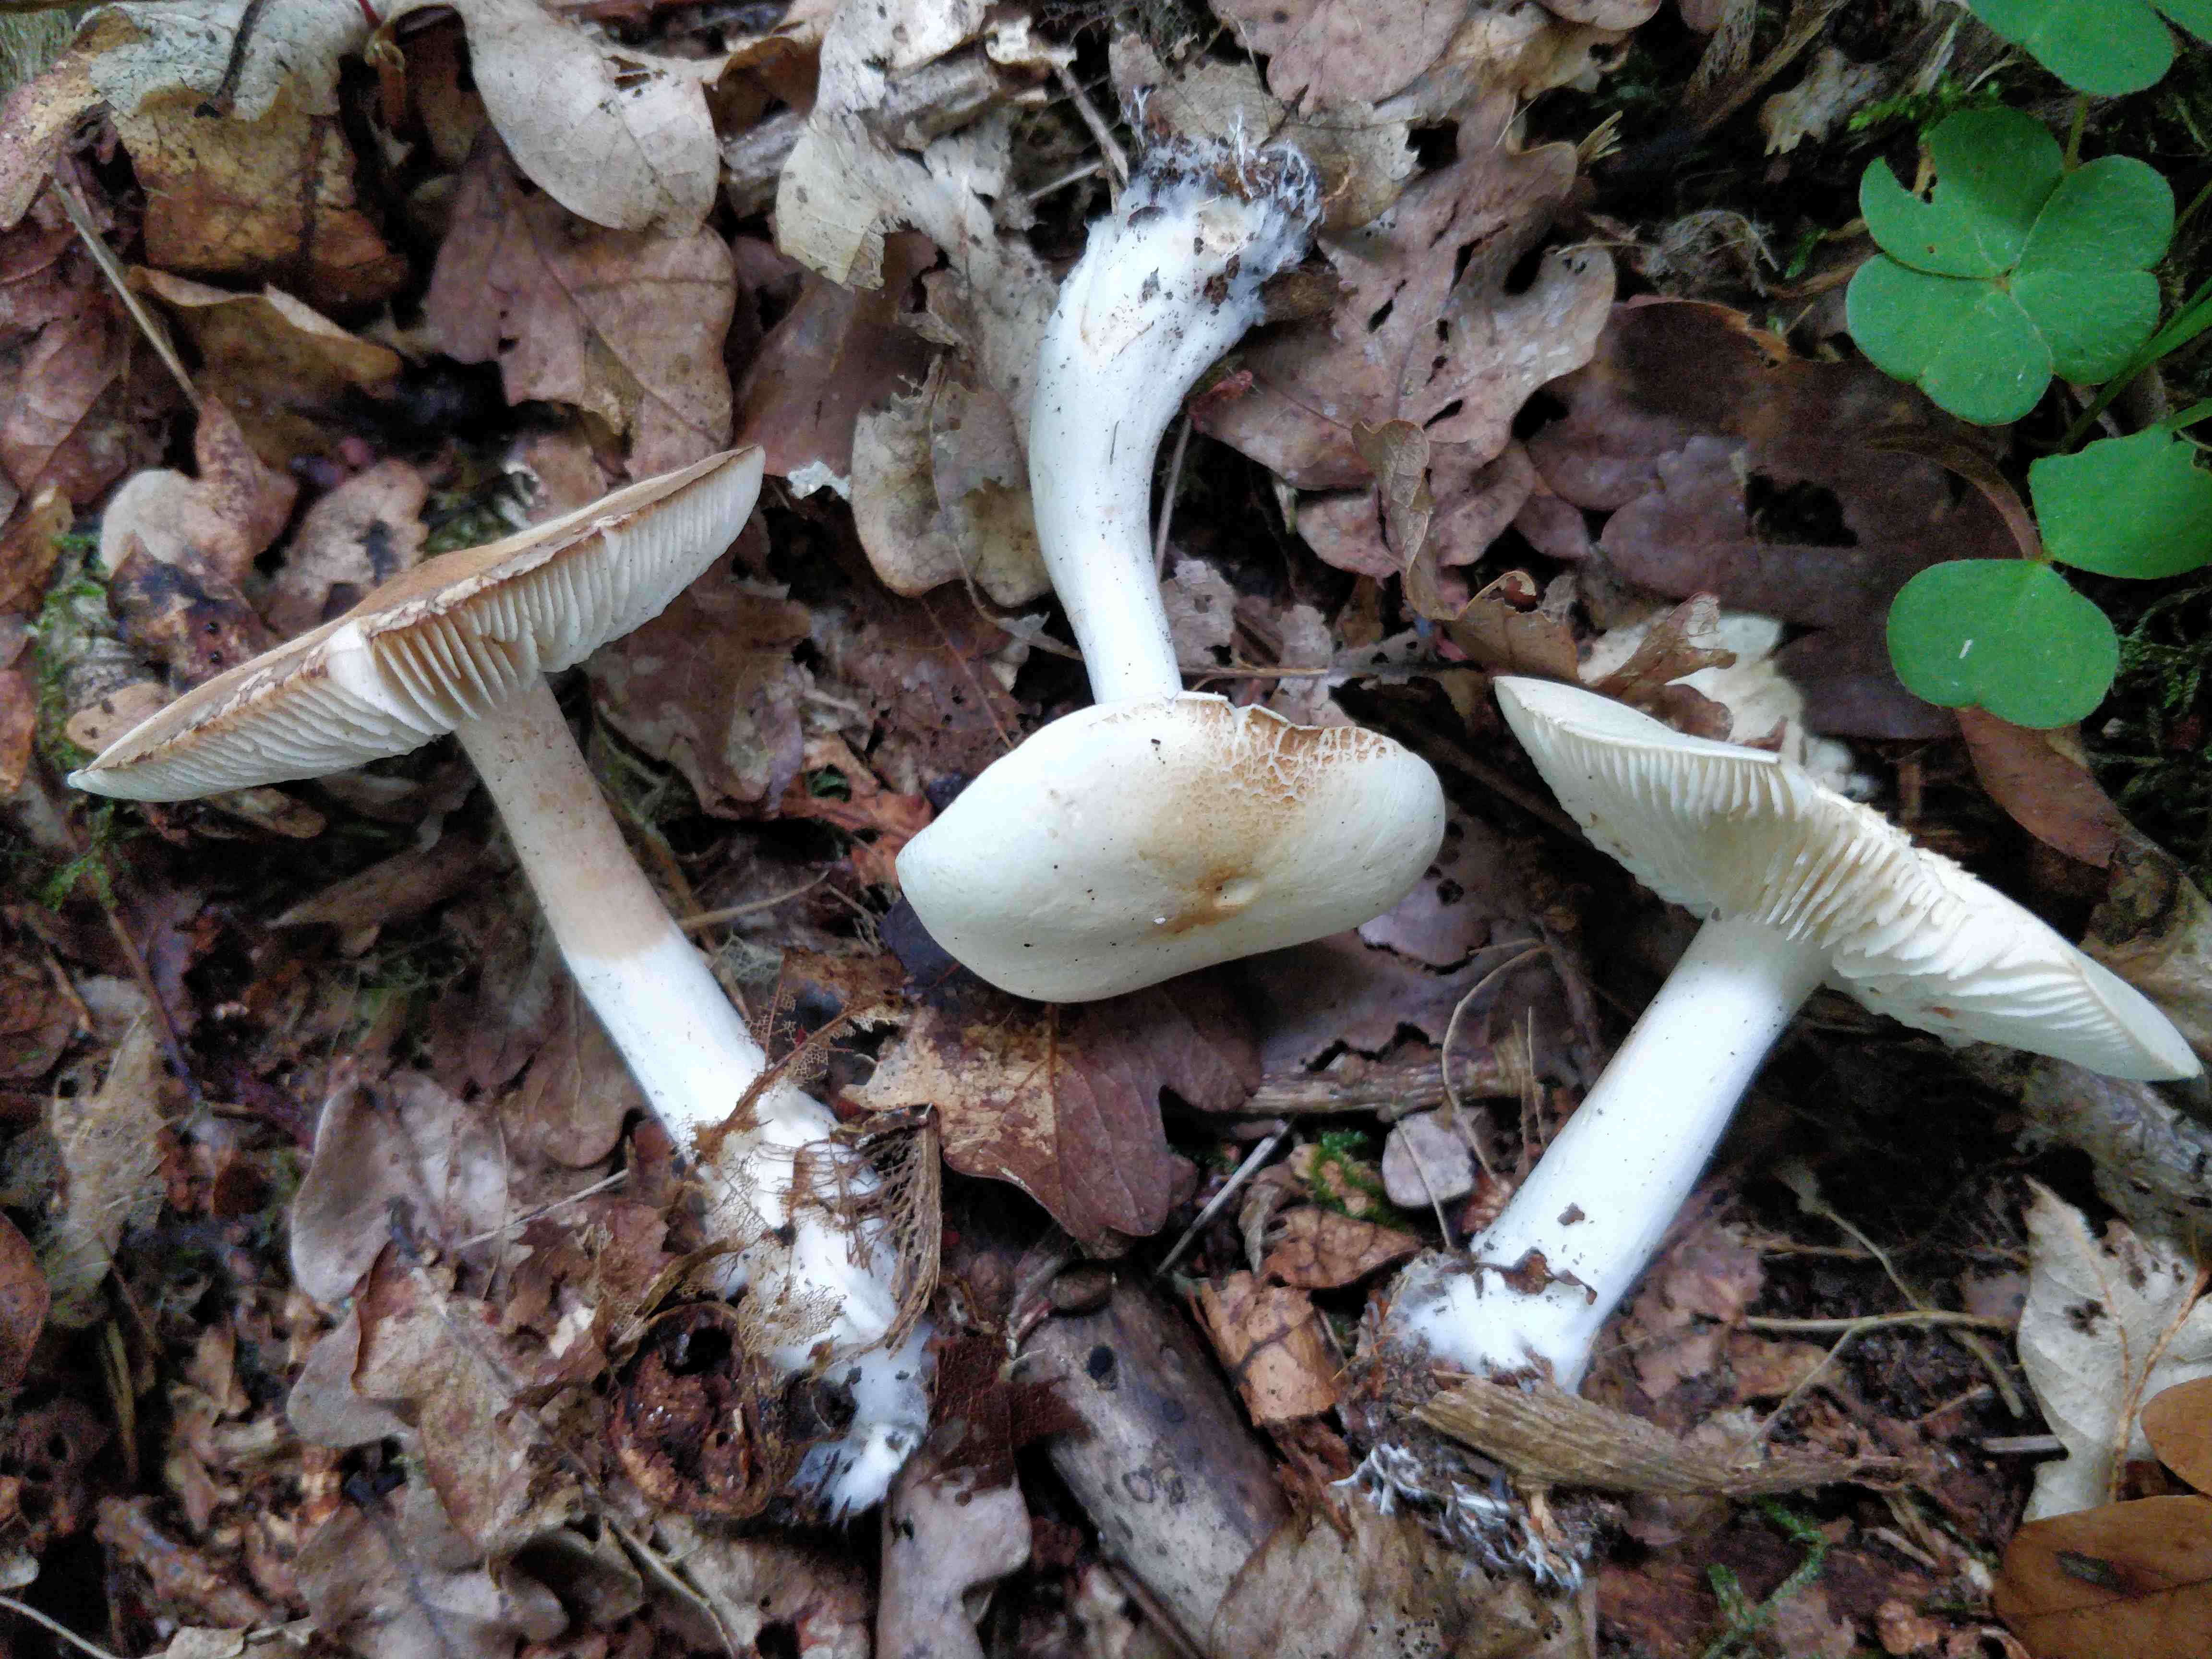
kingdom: Fungi
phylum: Basidiomycota
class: Agaricomycetes
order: Agaricales
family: Tricholomataceae
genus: Tricholoma
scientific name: Tricholoma lascivum
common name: stinkende ridderhat
